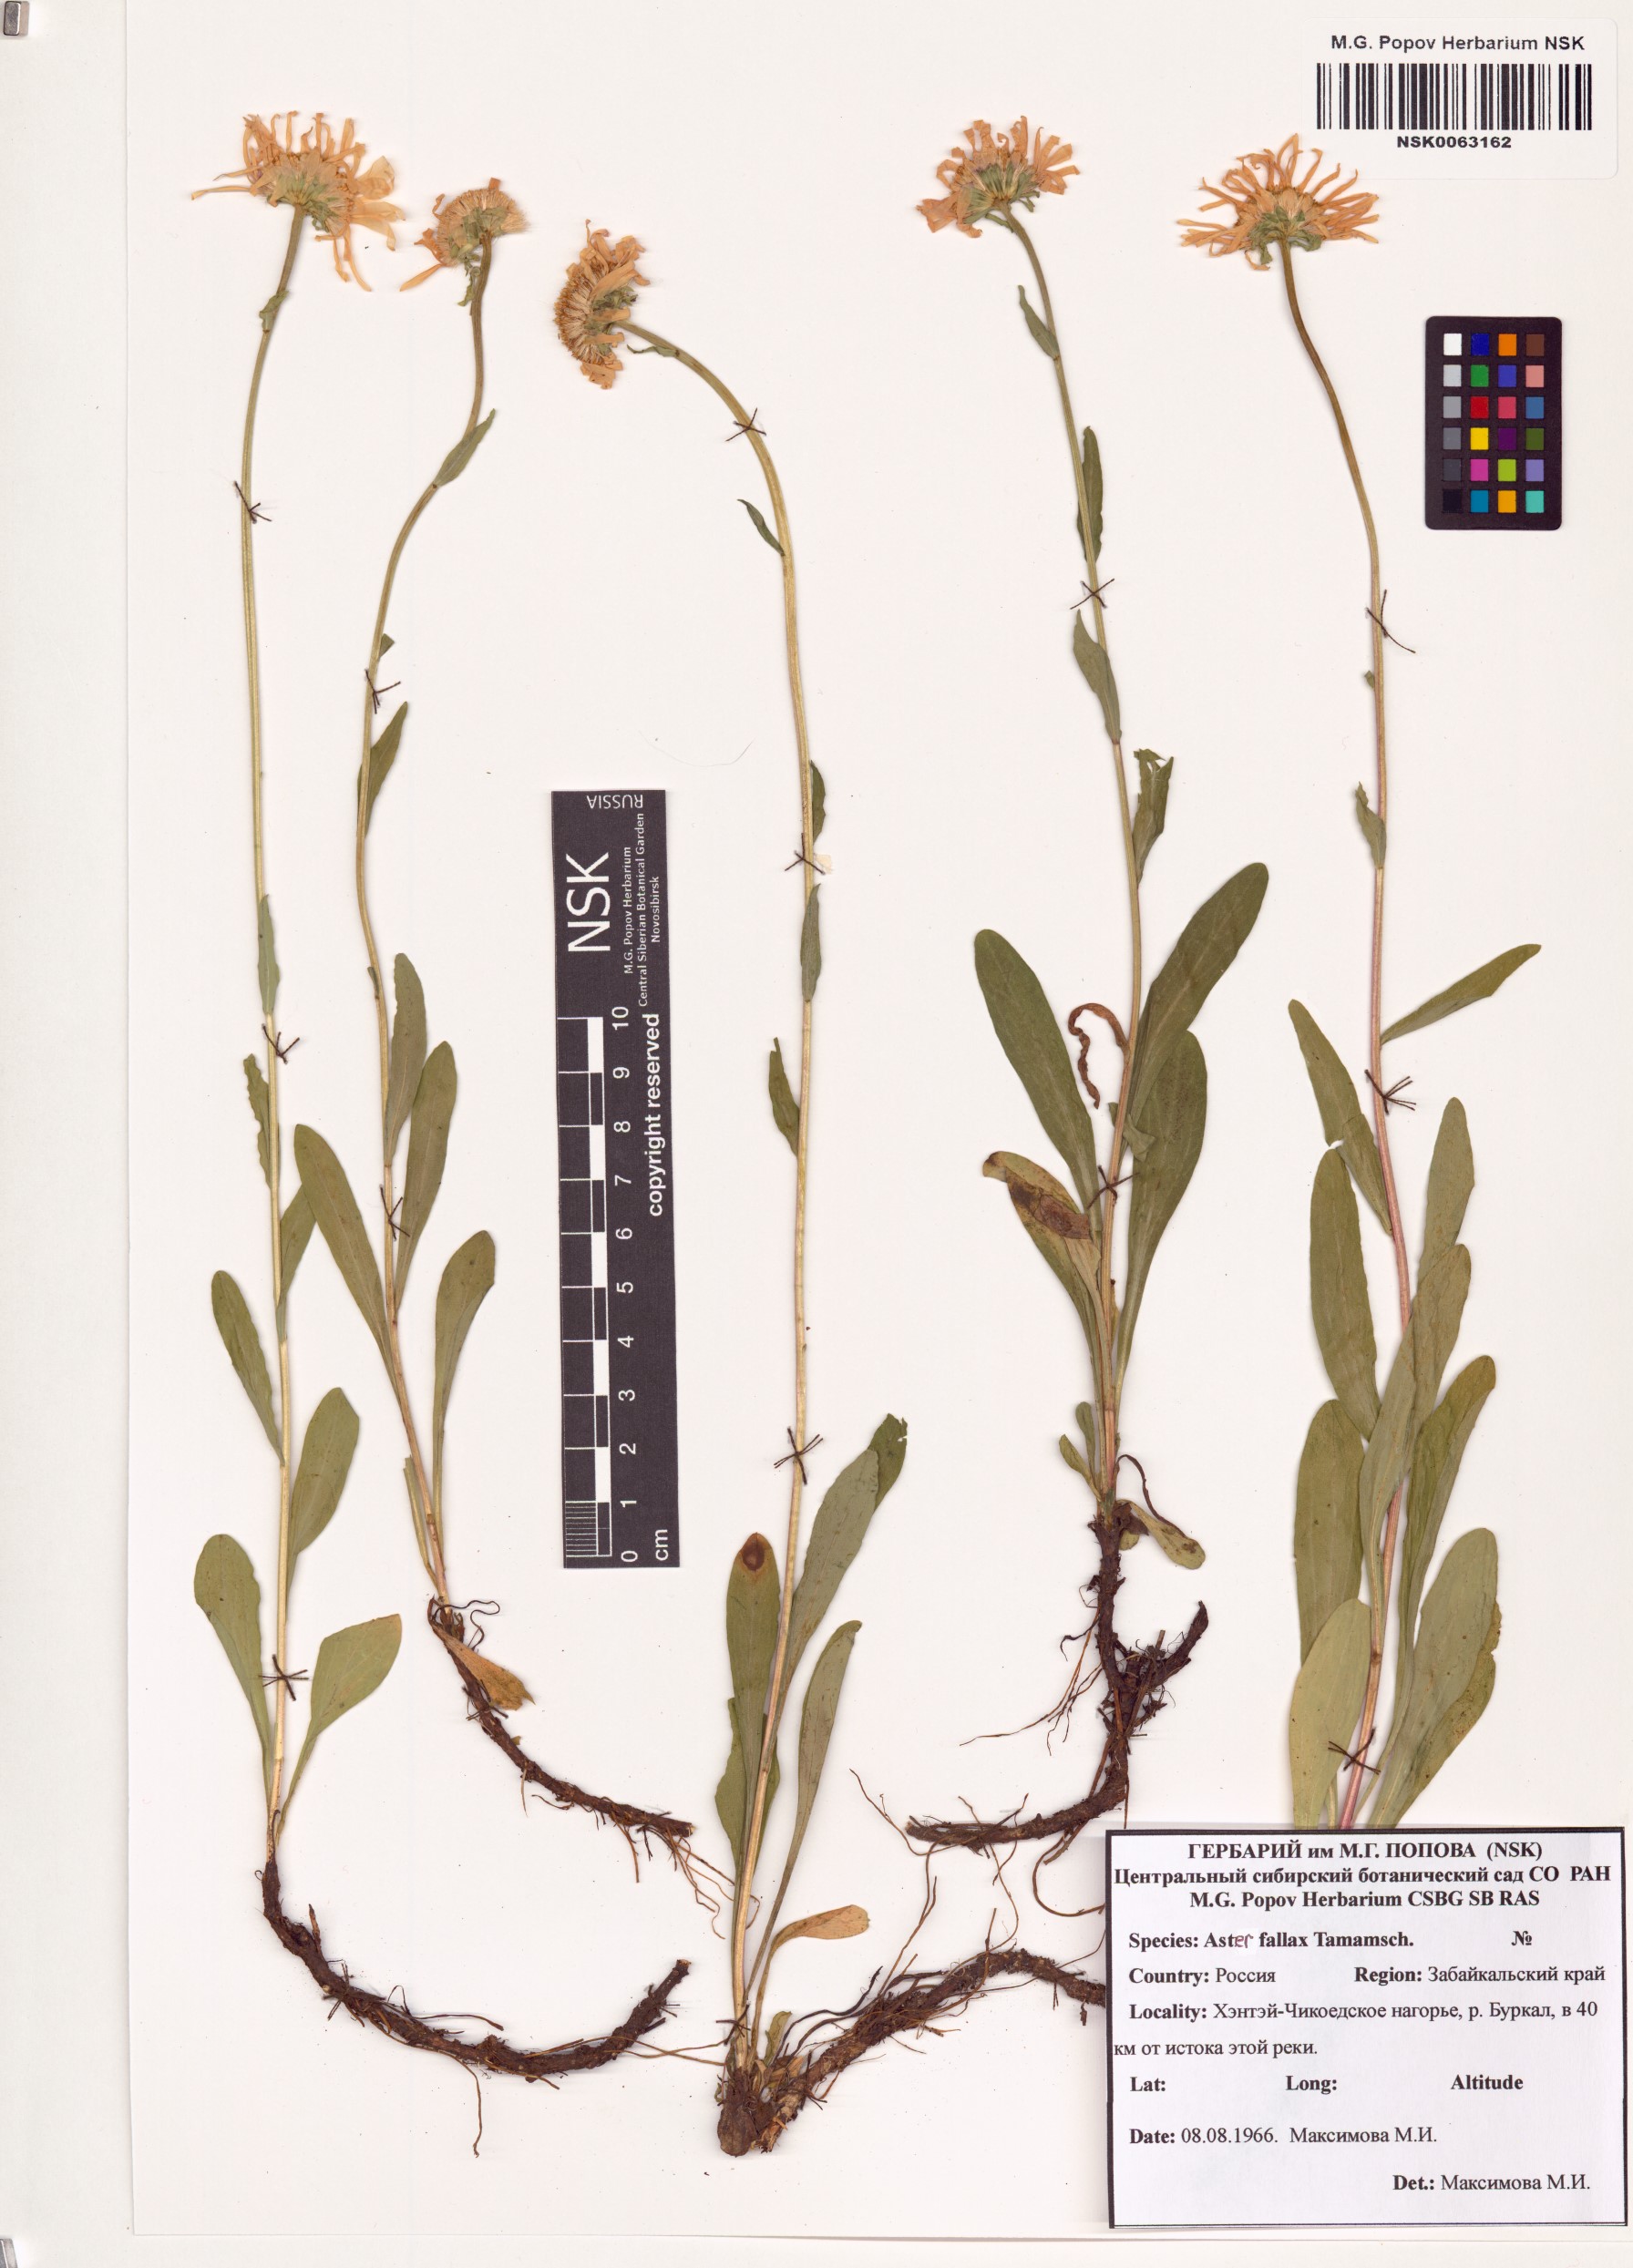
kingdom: Plantae
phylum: Tracheophyta
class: Magnoliopsida
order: Asterales
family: Asteraceae
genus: Aster
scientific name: Aster alpinus
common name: Alpine aster
